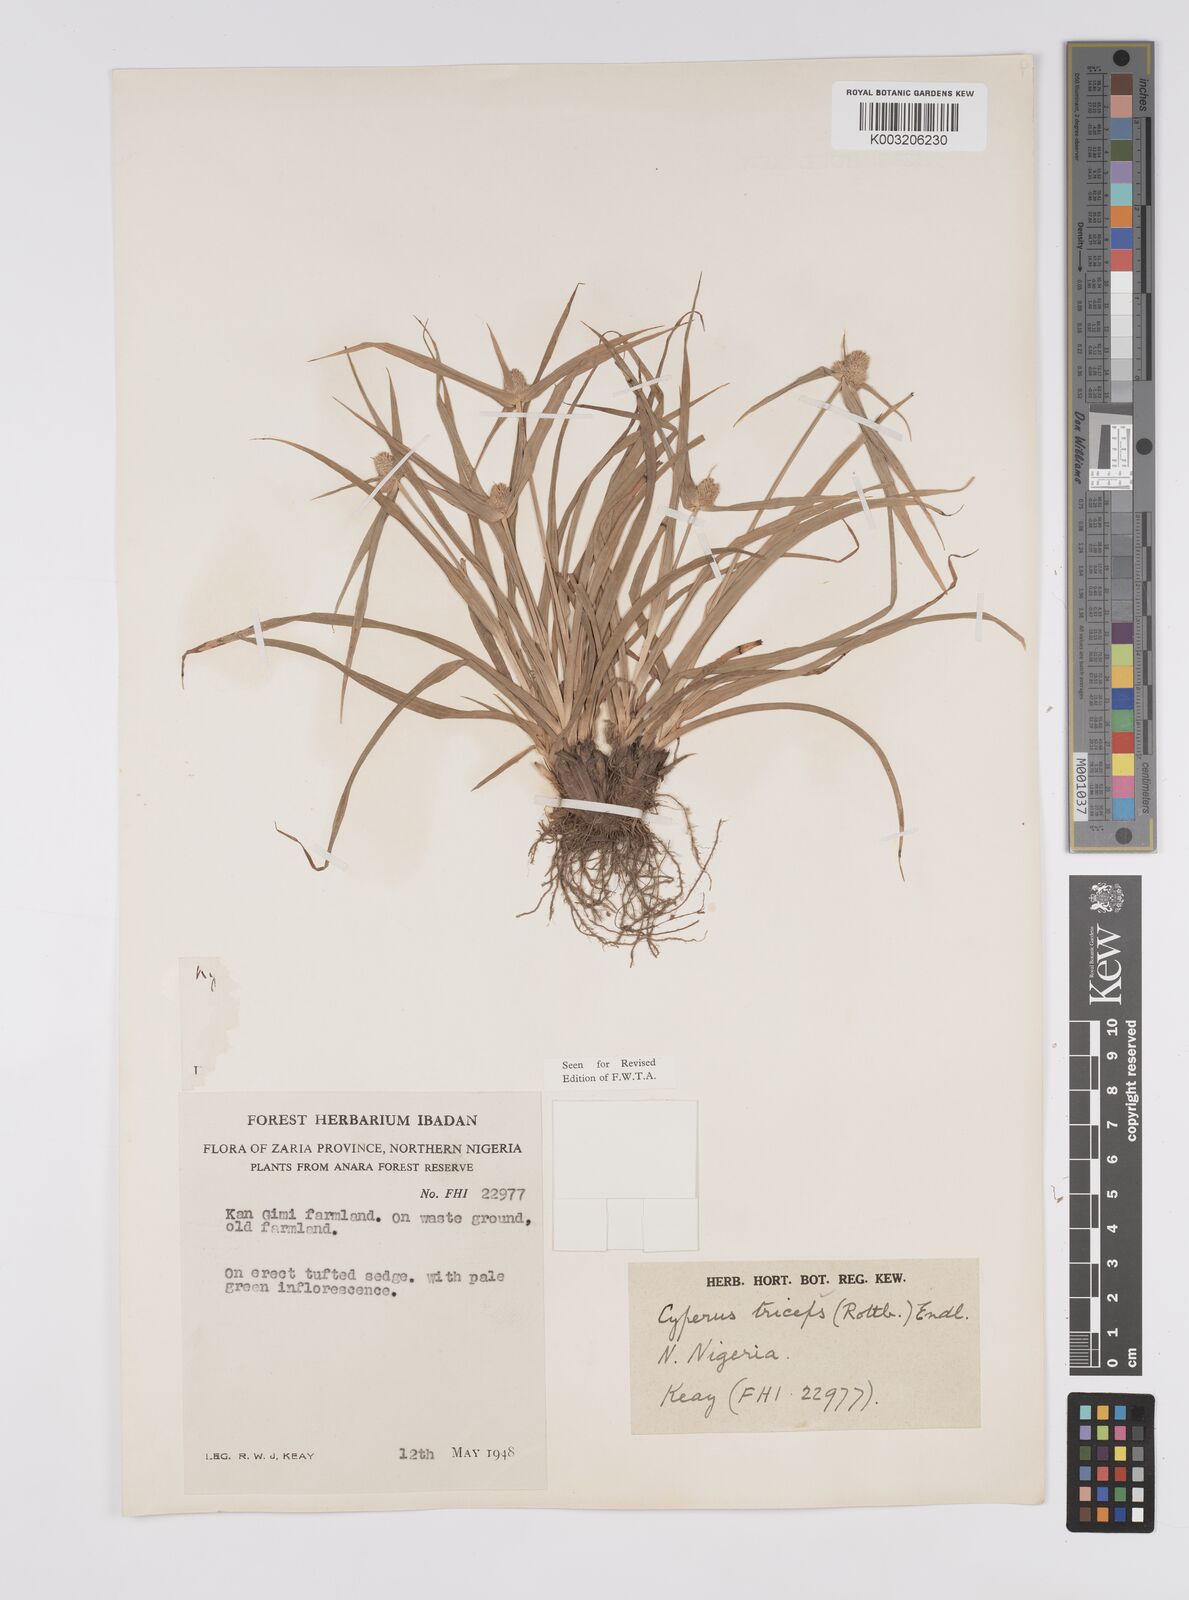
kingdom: Plantae
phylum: Tracheophyta
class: Liliopsida
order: Poales
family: Cyperaceae
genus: Cyperus
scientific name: Cyperus
